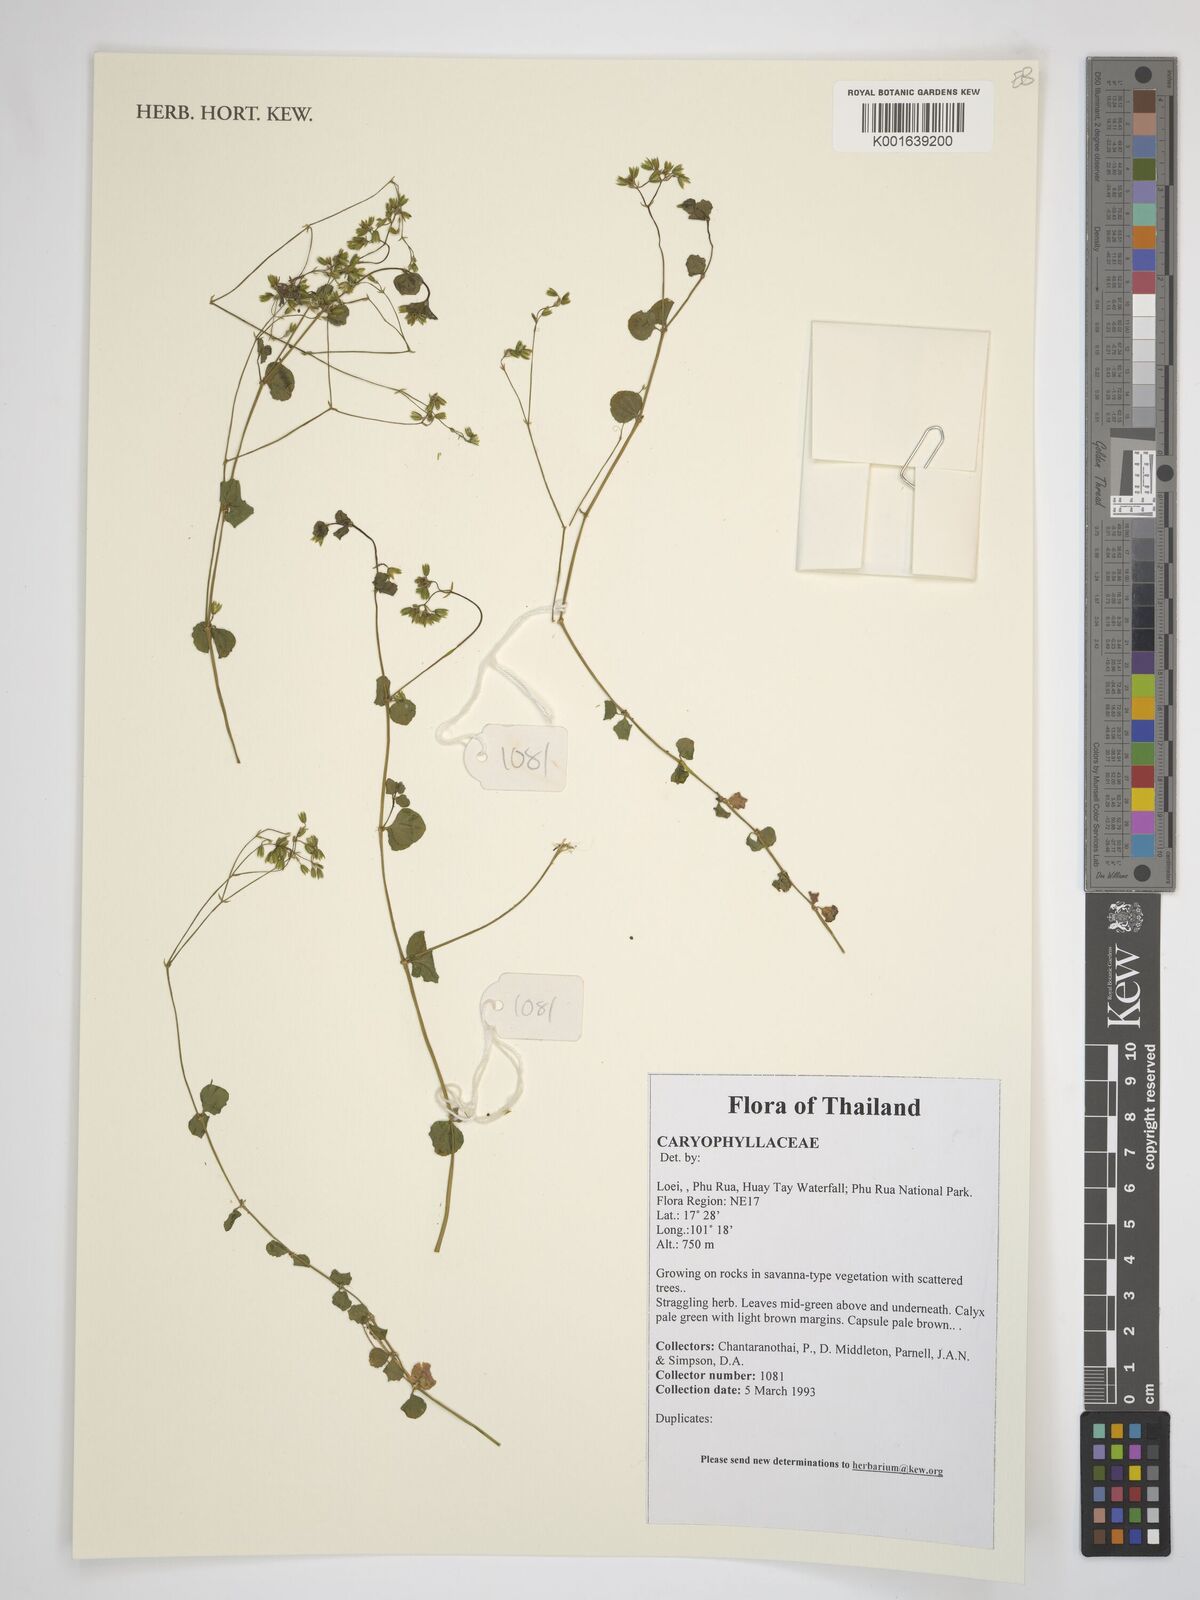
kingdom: Plantae
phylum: Tracheophyta
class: Magnoliopsida
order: Caryophyllales
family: Caryophyllaceae
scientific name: Caryophyllaceae
